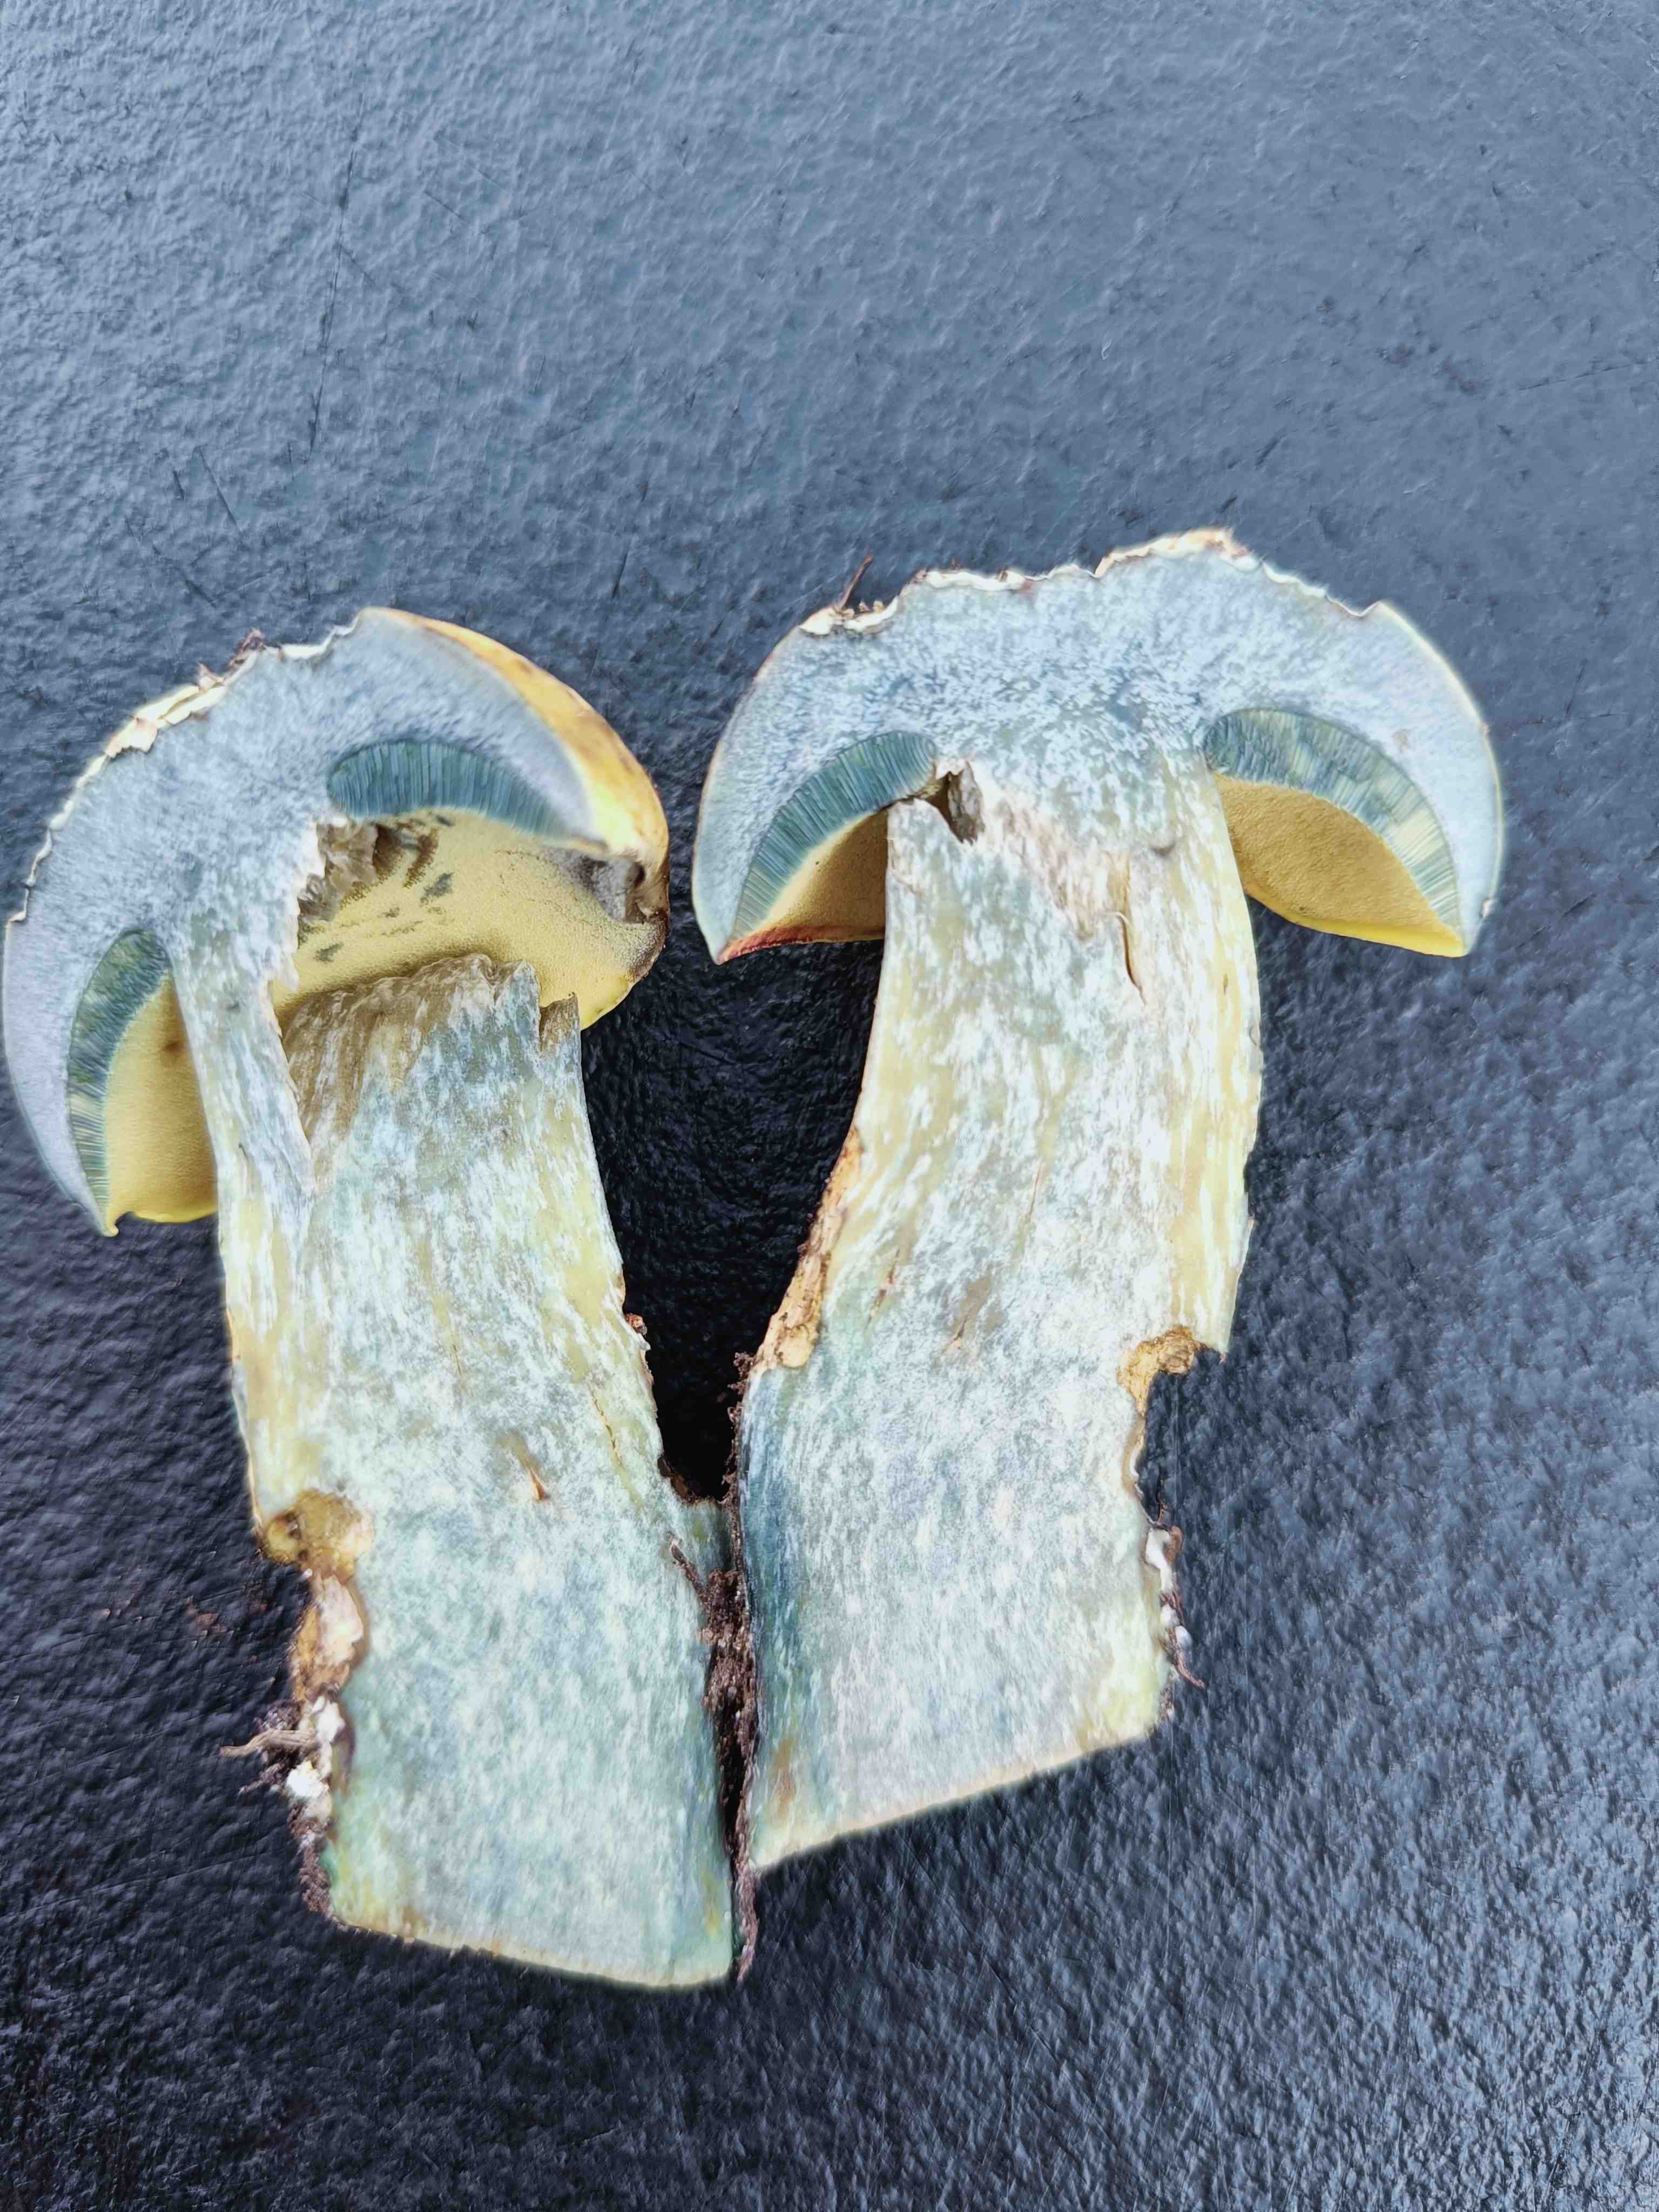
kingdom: Fungi
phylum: Basidiomycota
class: Agaricomycetes
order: Boletales
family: Boletaceae
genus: Neoboletus
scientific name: Neoboletus praestigiator
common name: gul indigorørhat
